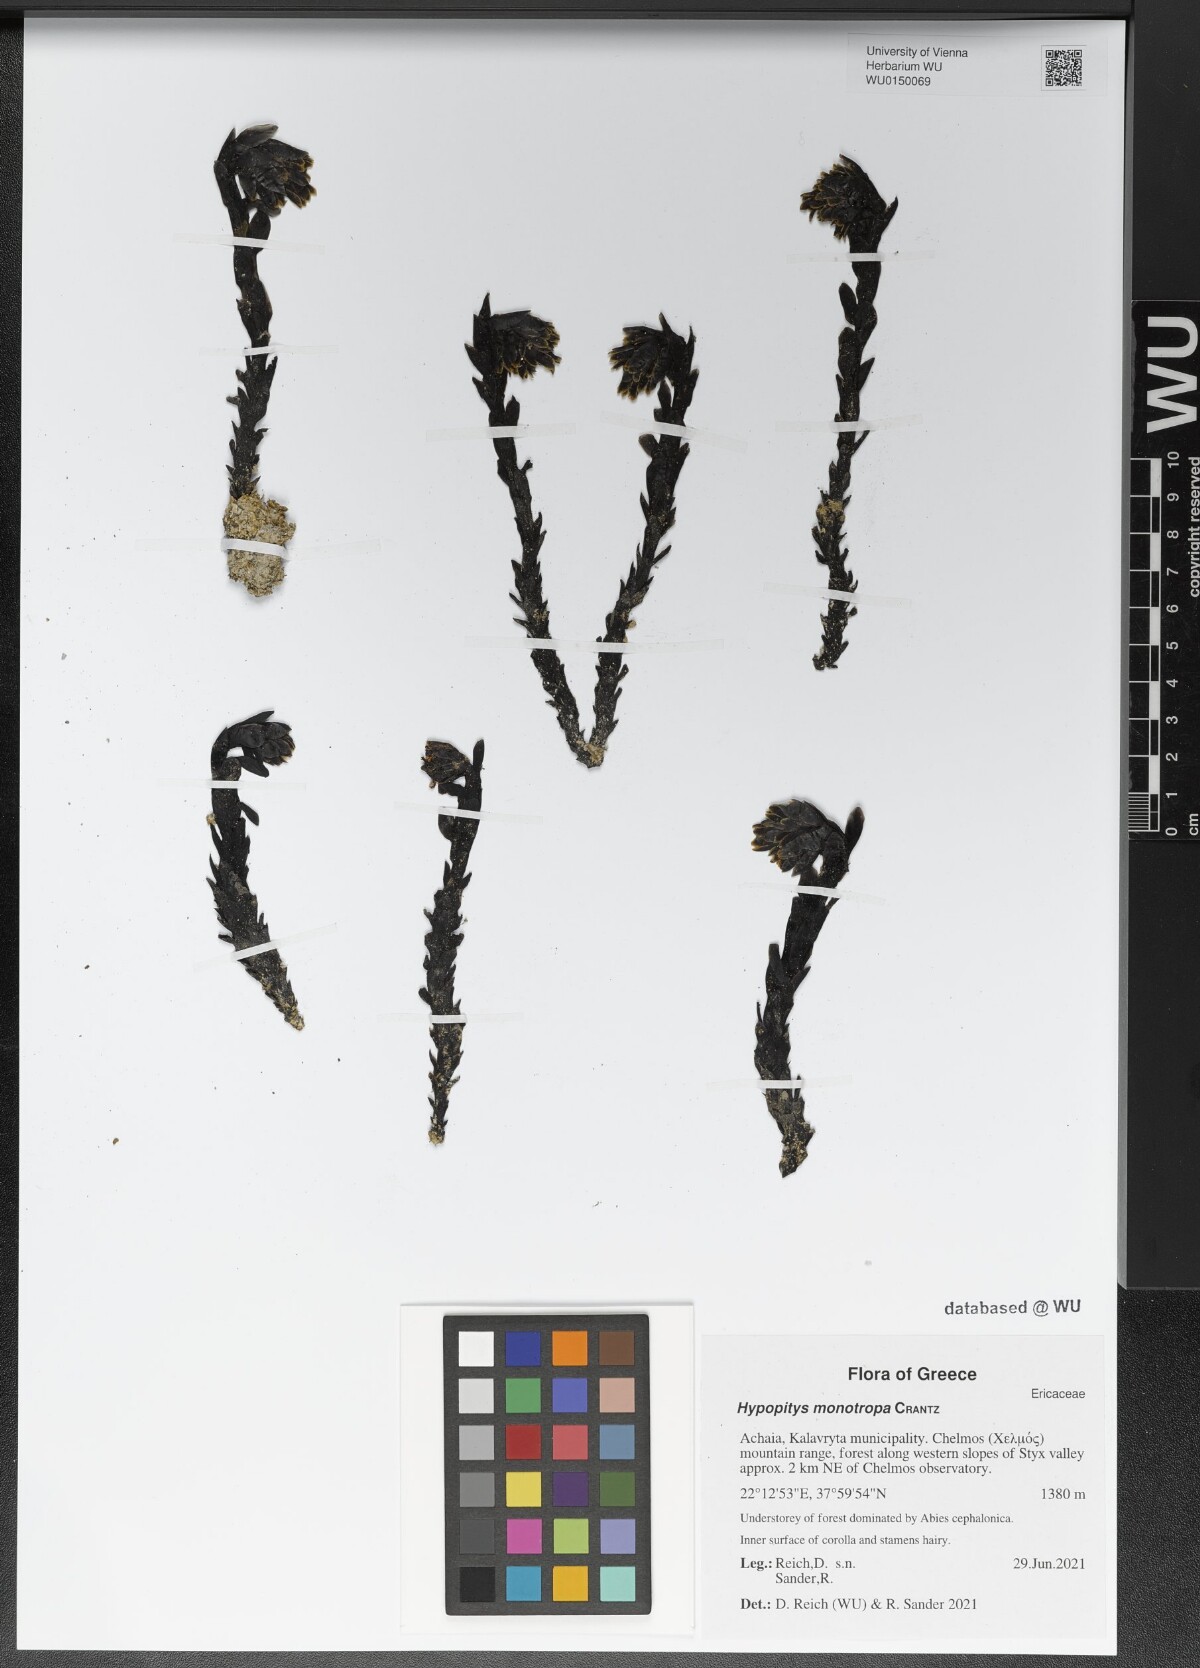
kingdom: Plantae
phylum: Tracheophyta
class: Magnoliopsida
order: Ericales
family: Ericaceae
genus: Hypopitys
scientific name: Hypopitys monotropa
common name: Yellow bird's-nest
